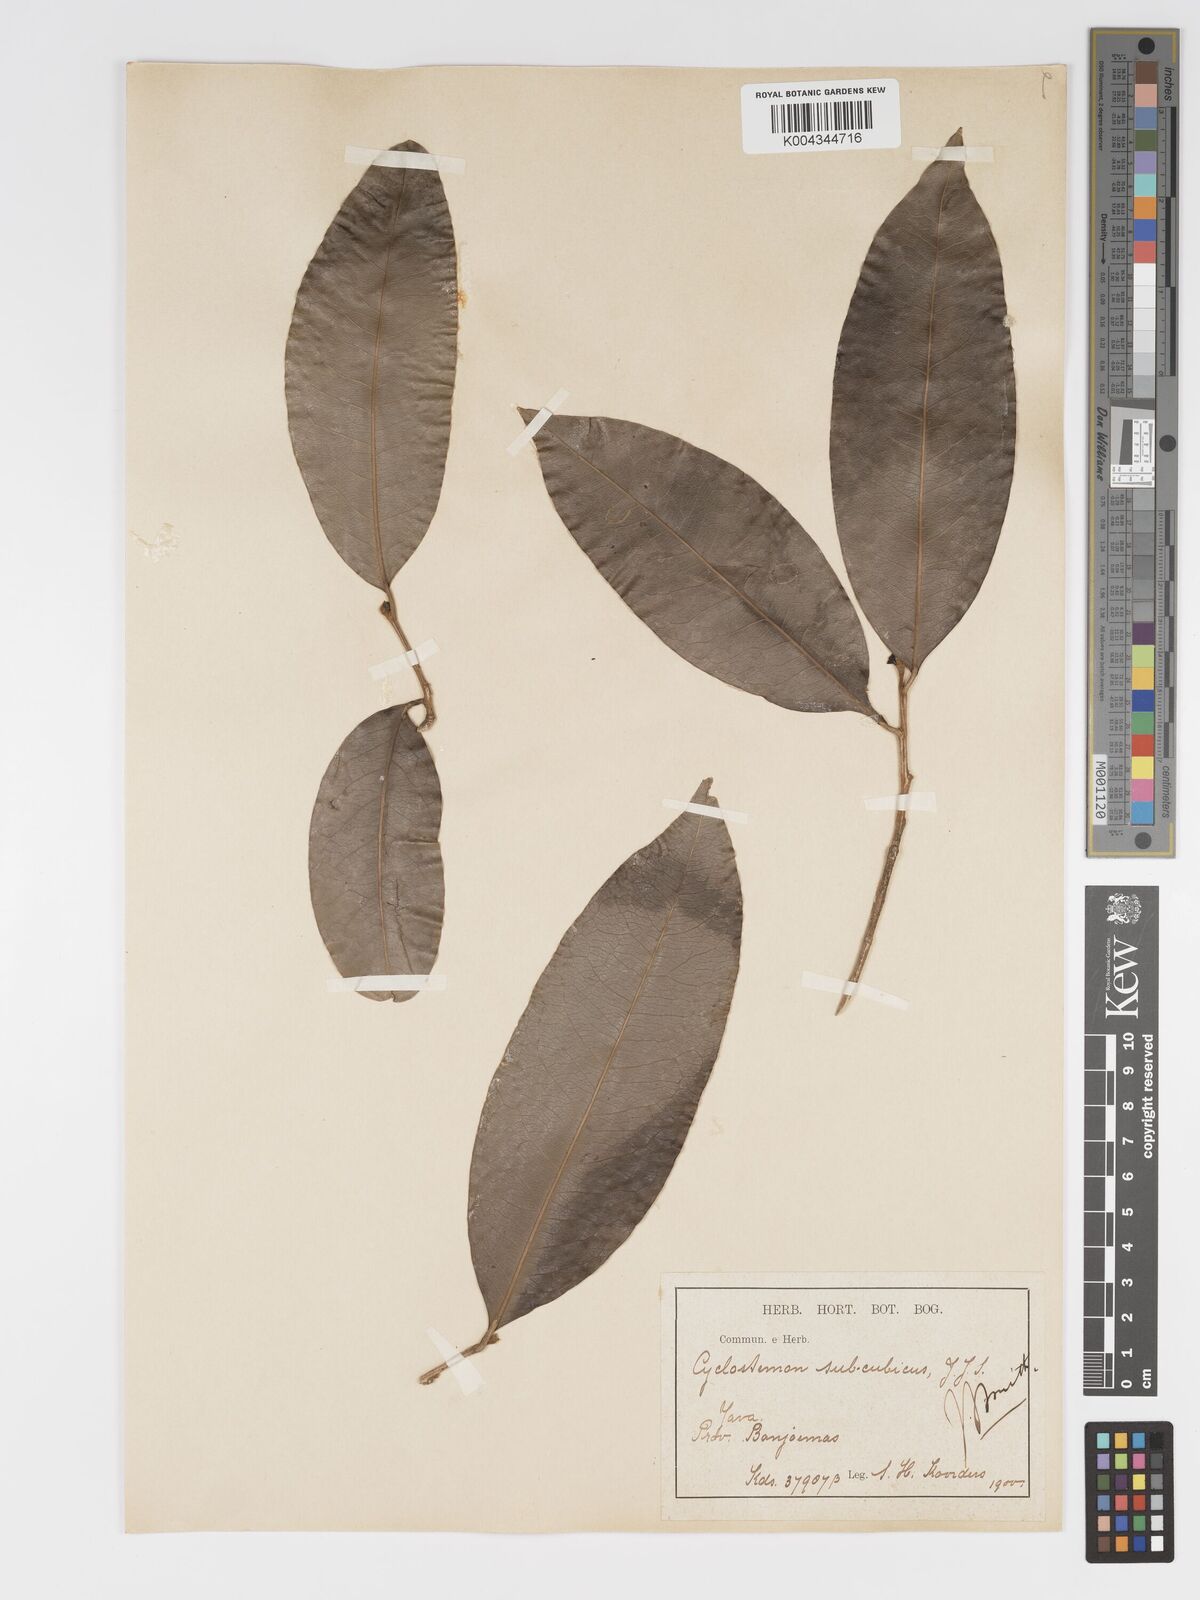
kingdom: Plantae
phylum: Tracheophyta
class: Magnoliopsida
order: Malpighiales
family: Putranjivaceae
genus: Drypetes
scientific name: Drypetes subcubica
